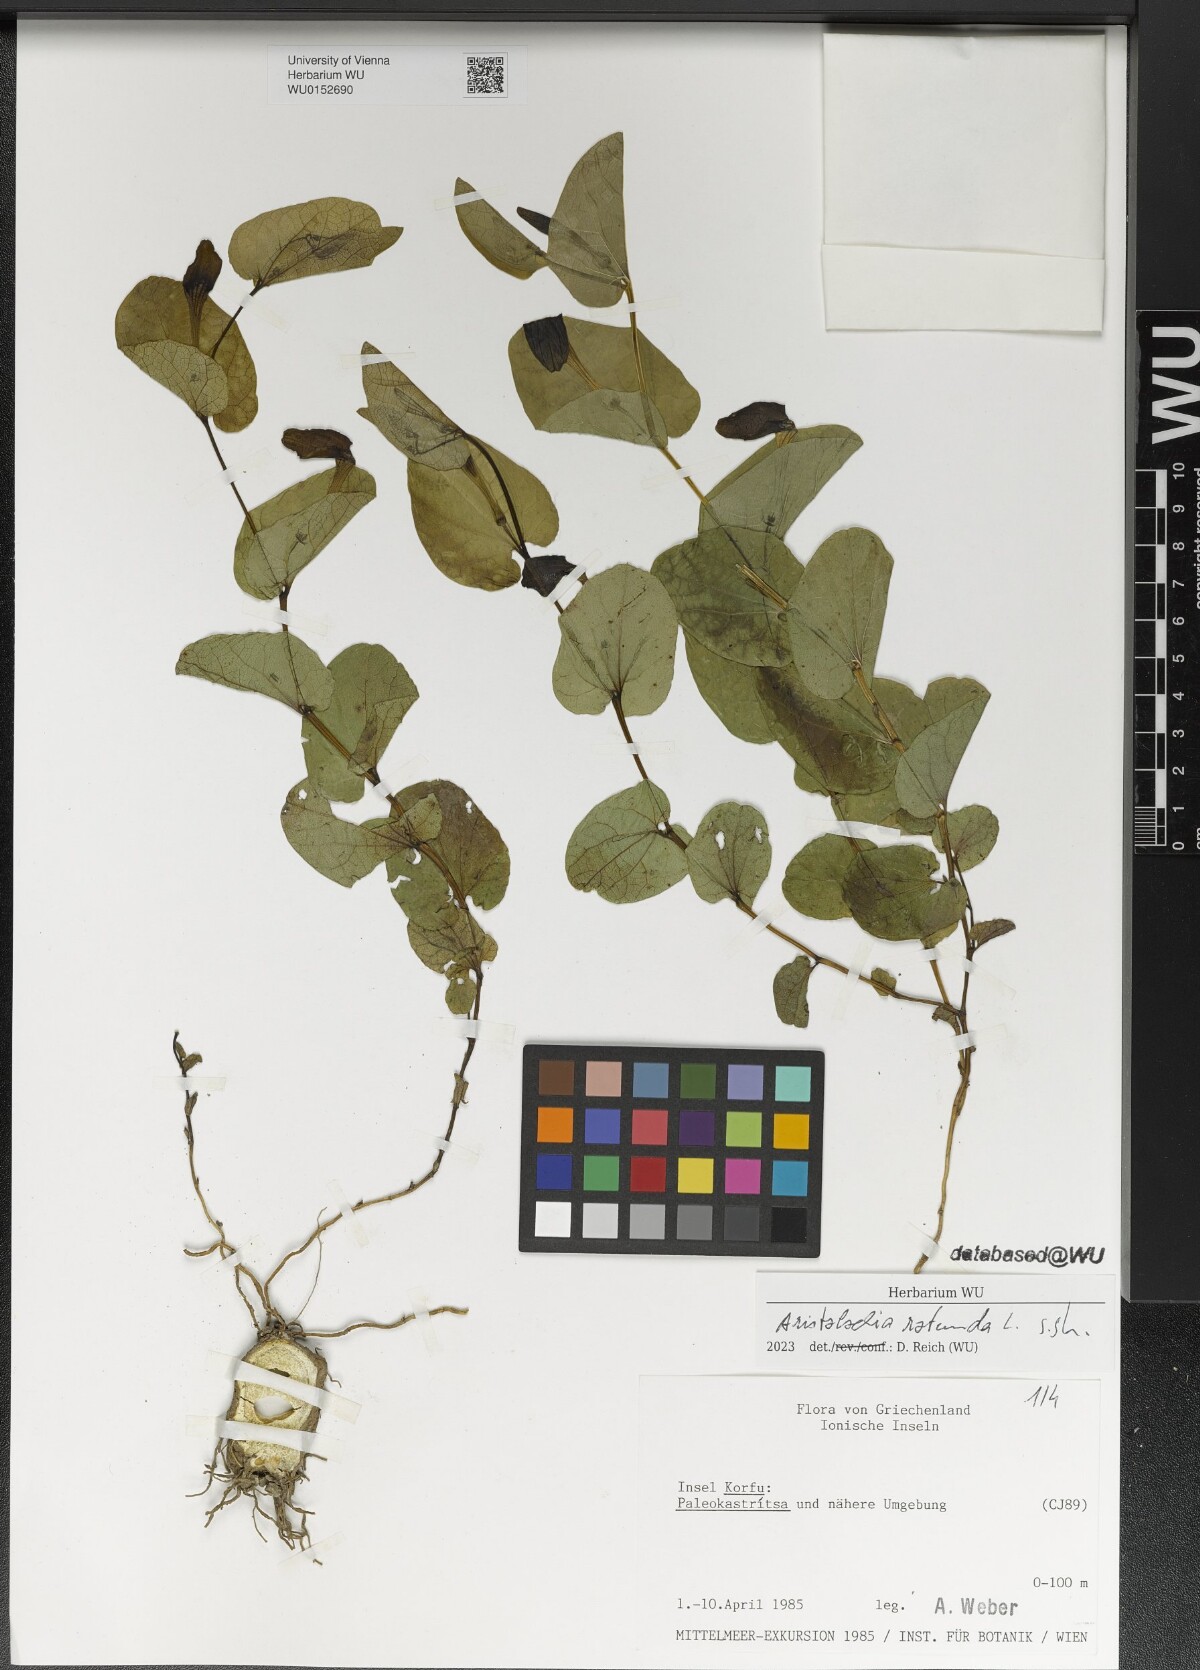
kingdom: Plantae
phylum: Tracheophyta
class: Magnoliopsida
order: Piperales
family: Aristolochiaceae
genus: Aristolochia
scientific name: Aristolochia rotunda
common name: Smearwort
